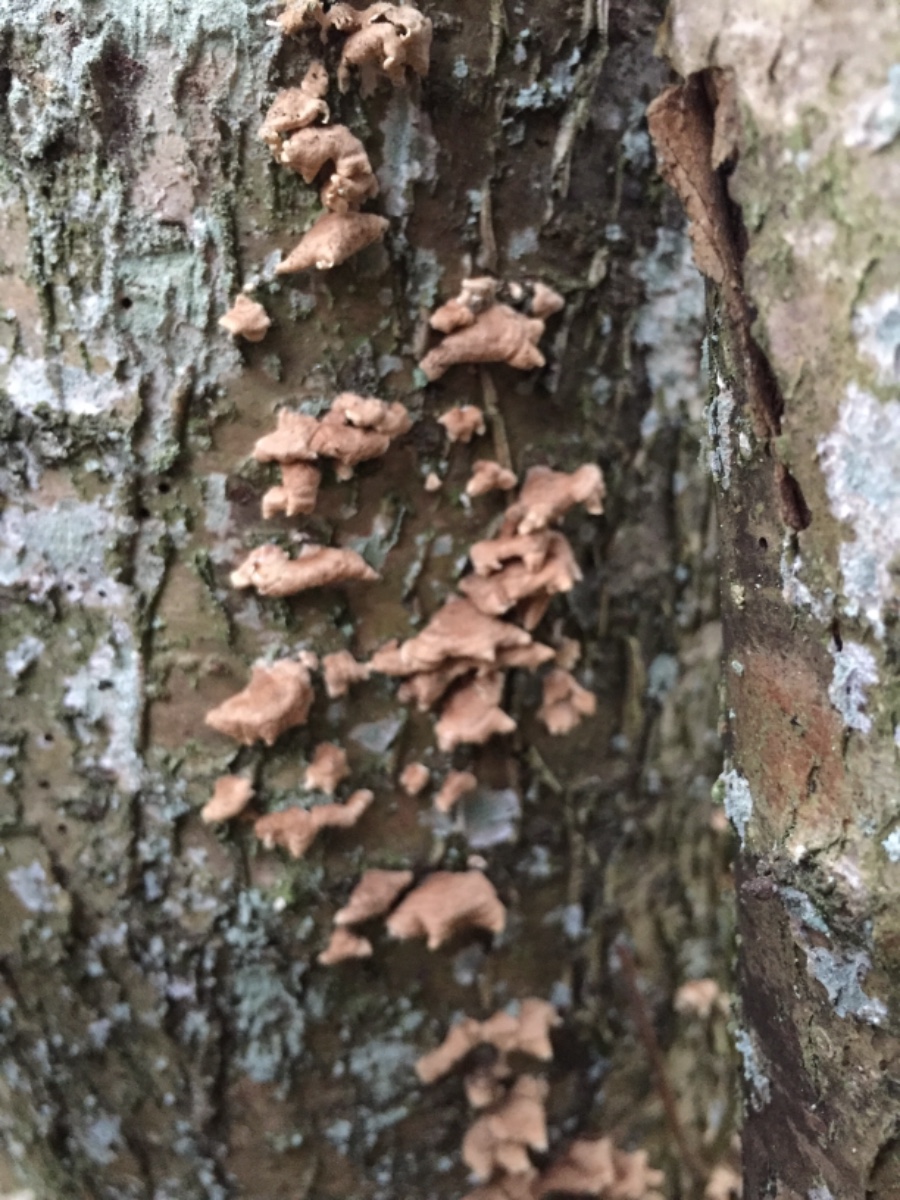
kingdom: Fungi
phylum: Basidiomycota
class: Agaricomycetes
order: Amylocorticiales
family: Amylocorticiaceae
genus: Plicaturopsis
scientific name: Plicaturopsis crispa
